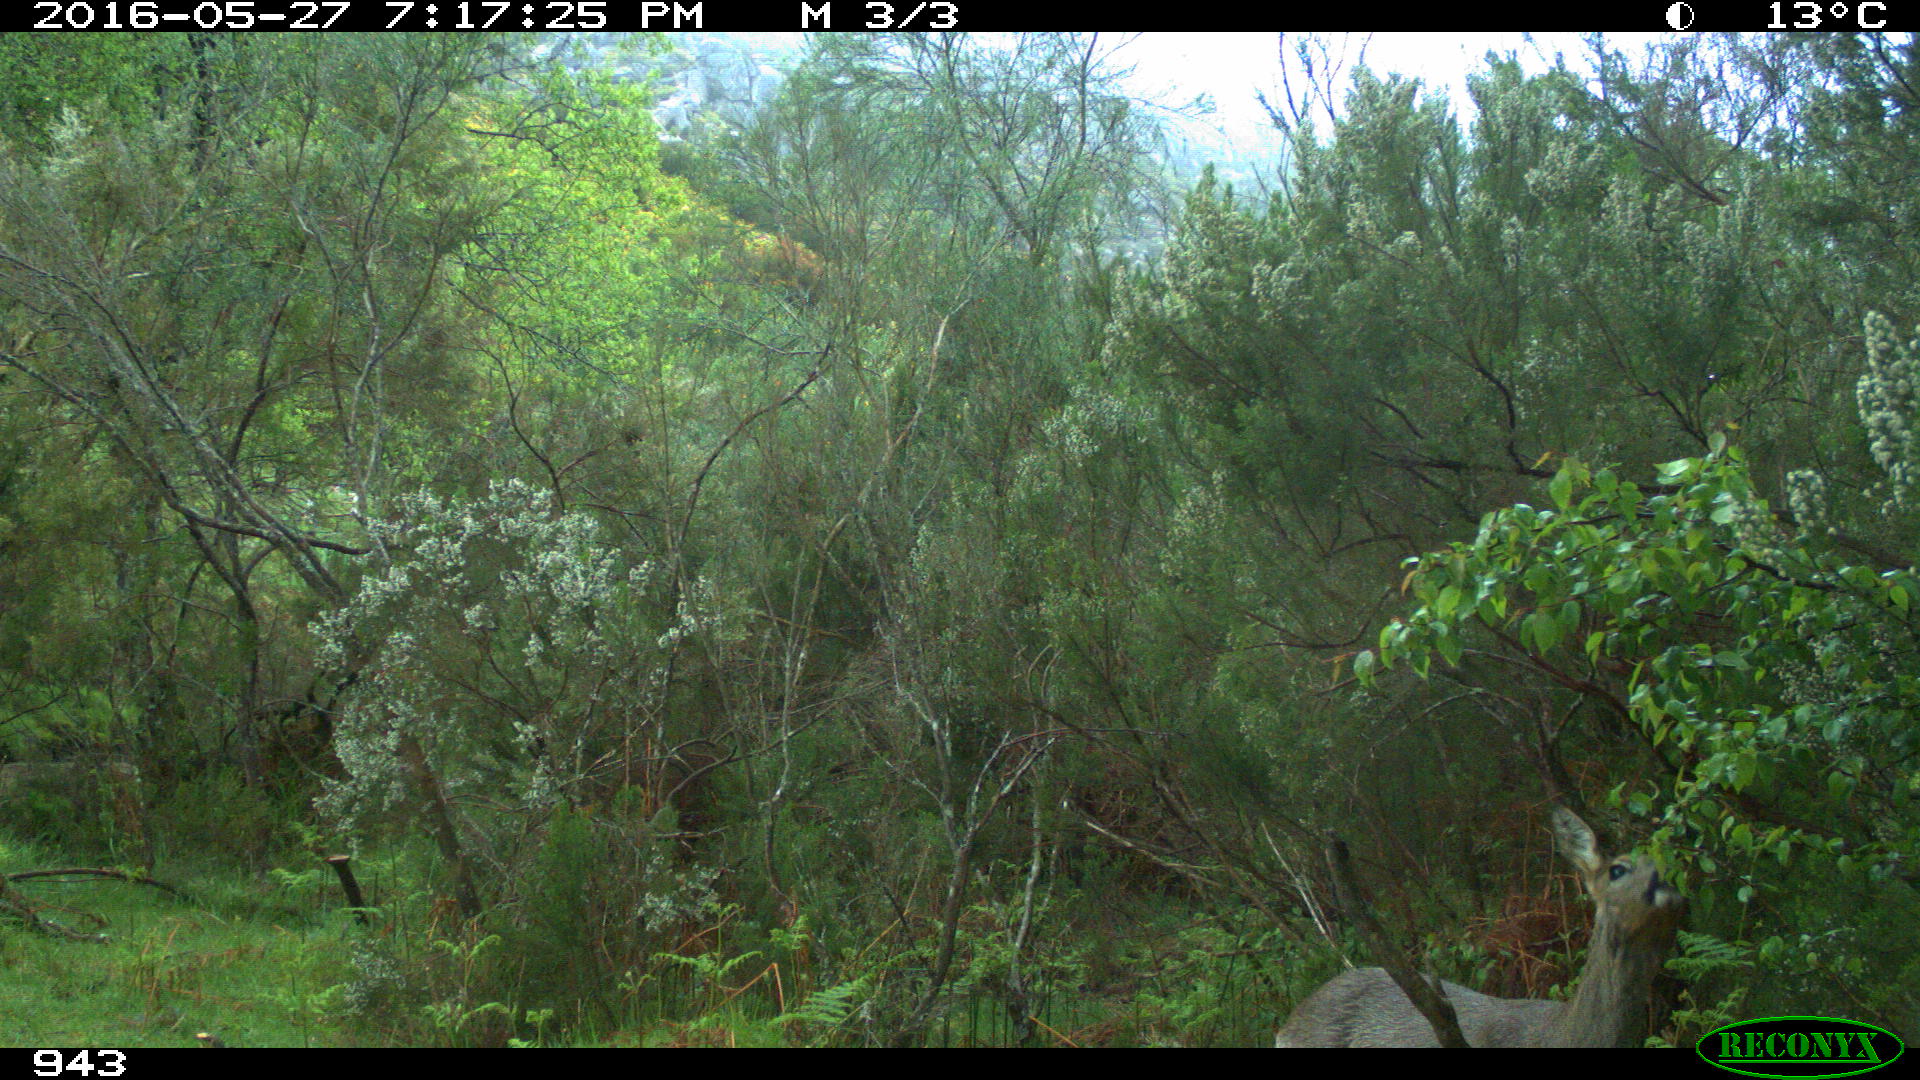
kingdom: Animalia
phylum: Chordata
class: Mammalia
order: Artiodactyla
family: Cervidae
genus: Capreolus
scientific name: Capreolus capreolus
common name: Western roe deer
